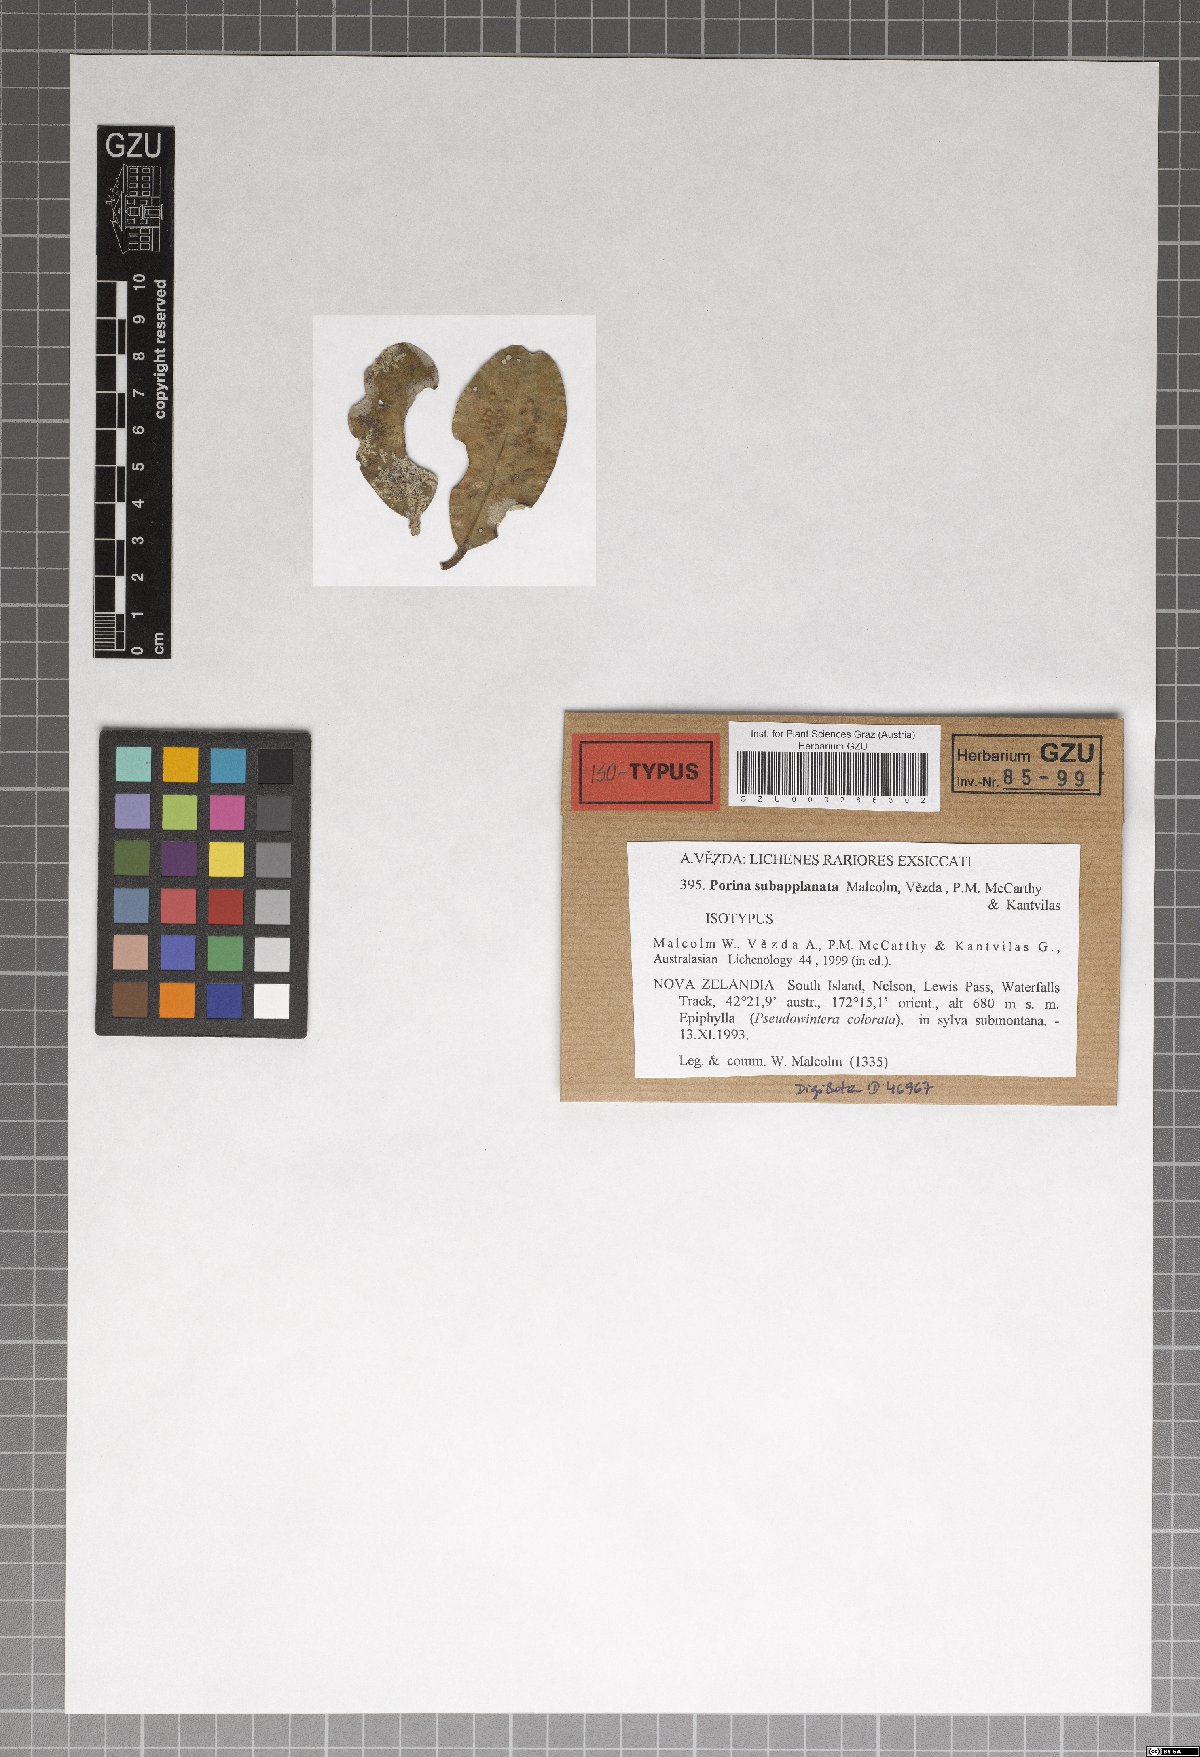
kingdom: Fungi
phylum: Ascomycota
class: Lecanoromycetes
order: Pertusariales
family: Pertusariaceae
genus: Porina
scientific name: Porina subapplanata
